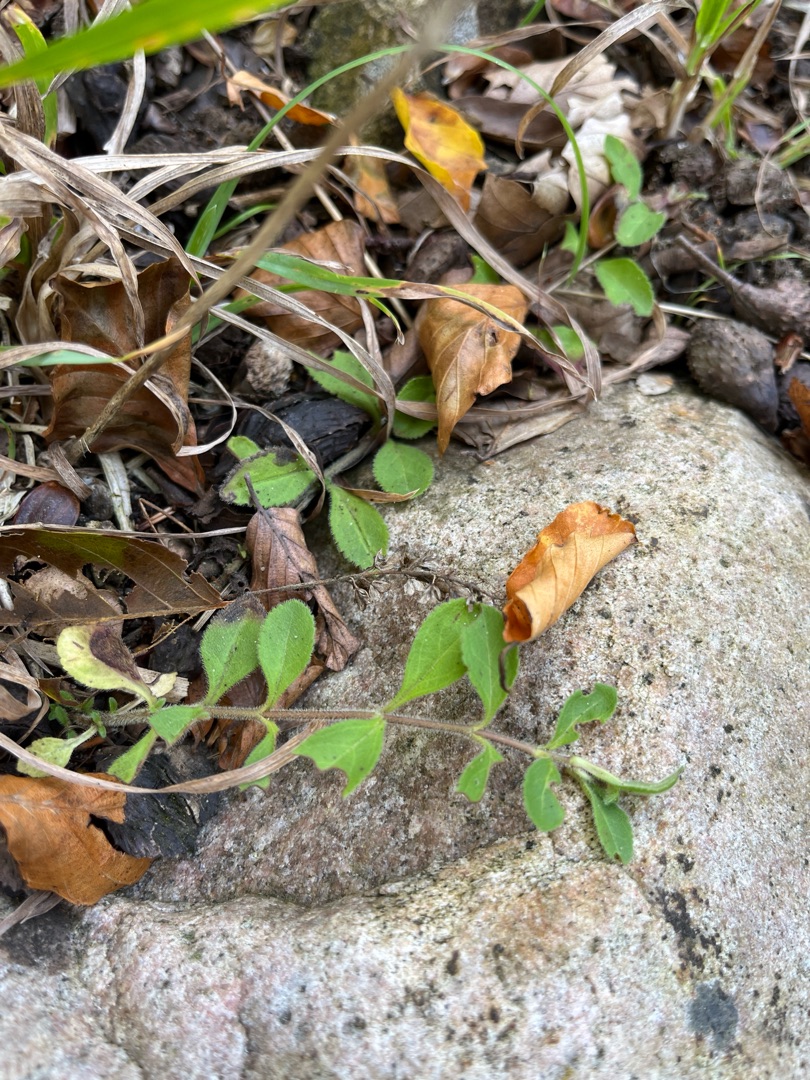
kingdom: Plantae
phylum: Tracheophyta
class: Magnoliopsida
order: Lamiales
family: Plantaginaceae
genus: Veronica
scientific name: Veronica officinalis
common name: Læge-ærenpris
